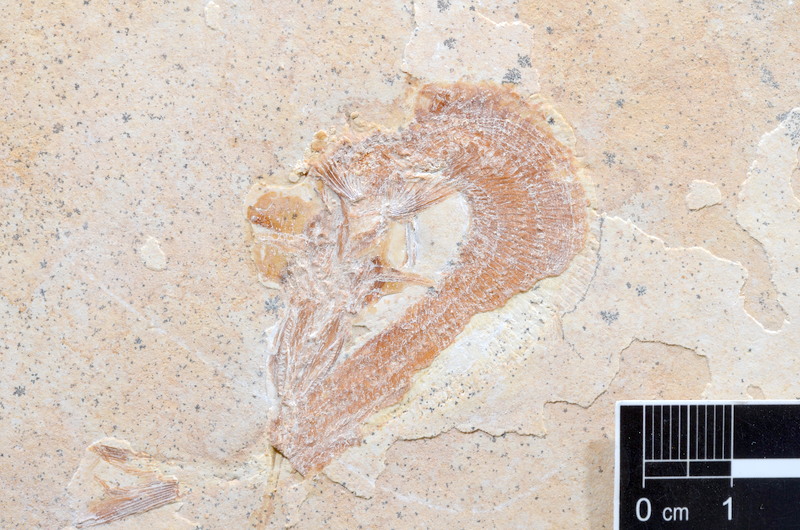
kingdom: Animalia
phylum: Chordata
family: Aspidorhynchidae
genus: Aspidorhynchus
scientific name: Aspidorhynchus acutirostris
